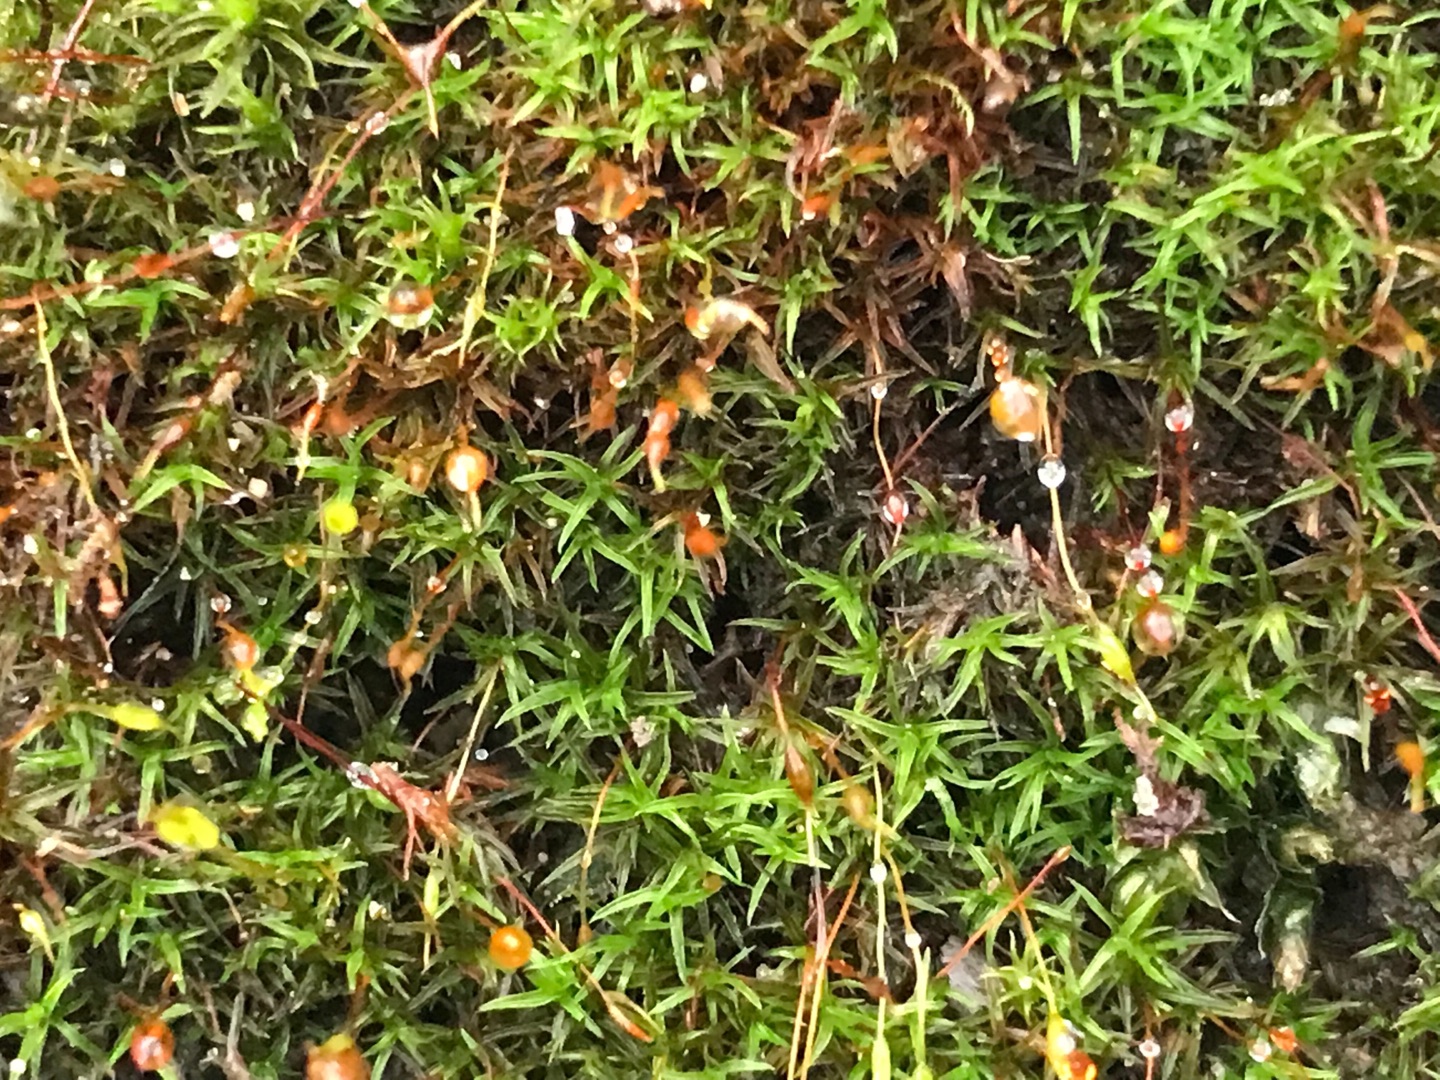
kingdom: Plantae
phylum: Bryophyta
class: Bryopsida
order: Pottiales
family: Pottiaceae
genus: Bryoerythrophyllum
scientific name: Bryoerythrophyllum recurvirostrum
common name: Rød gammelblad
